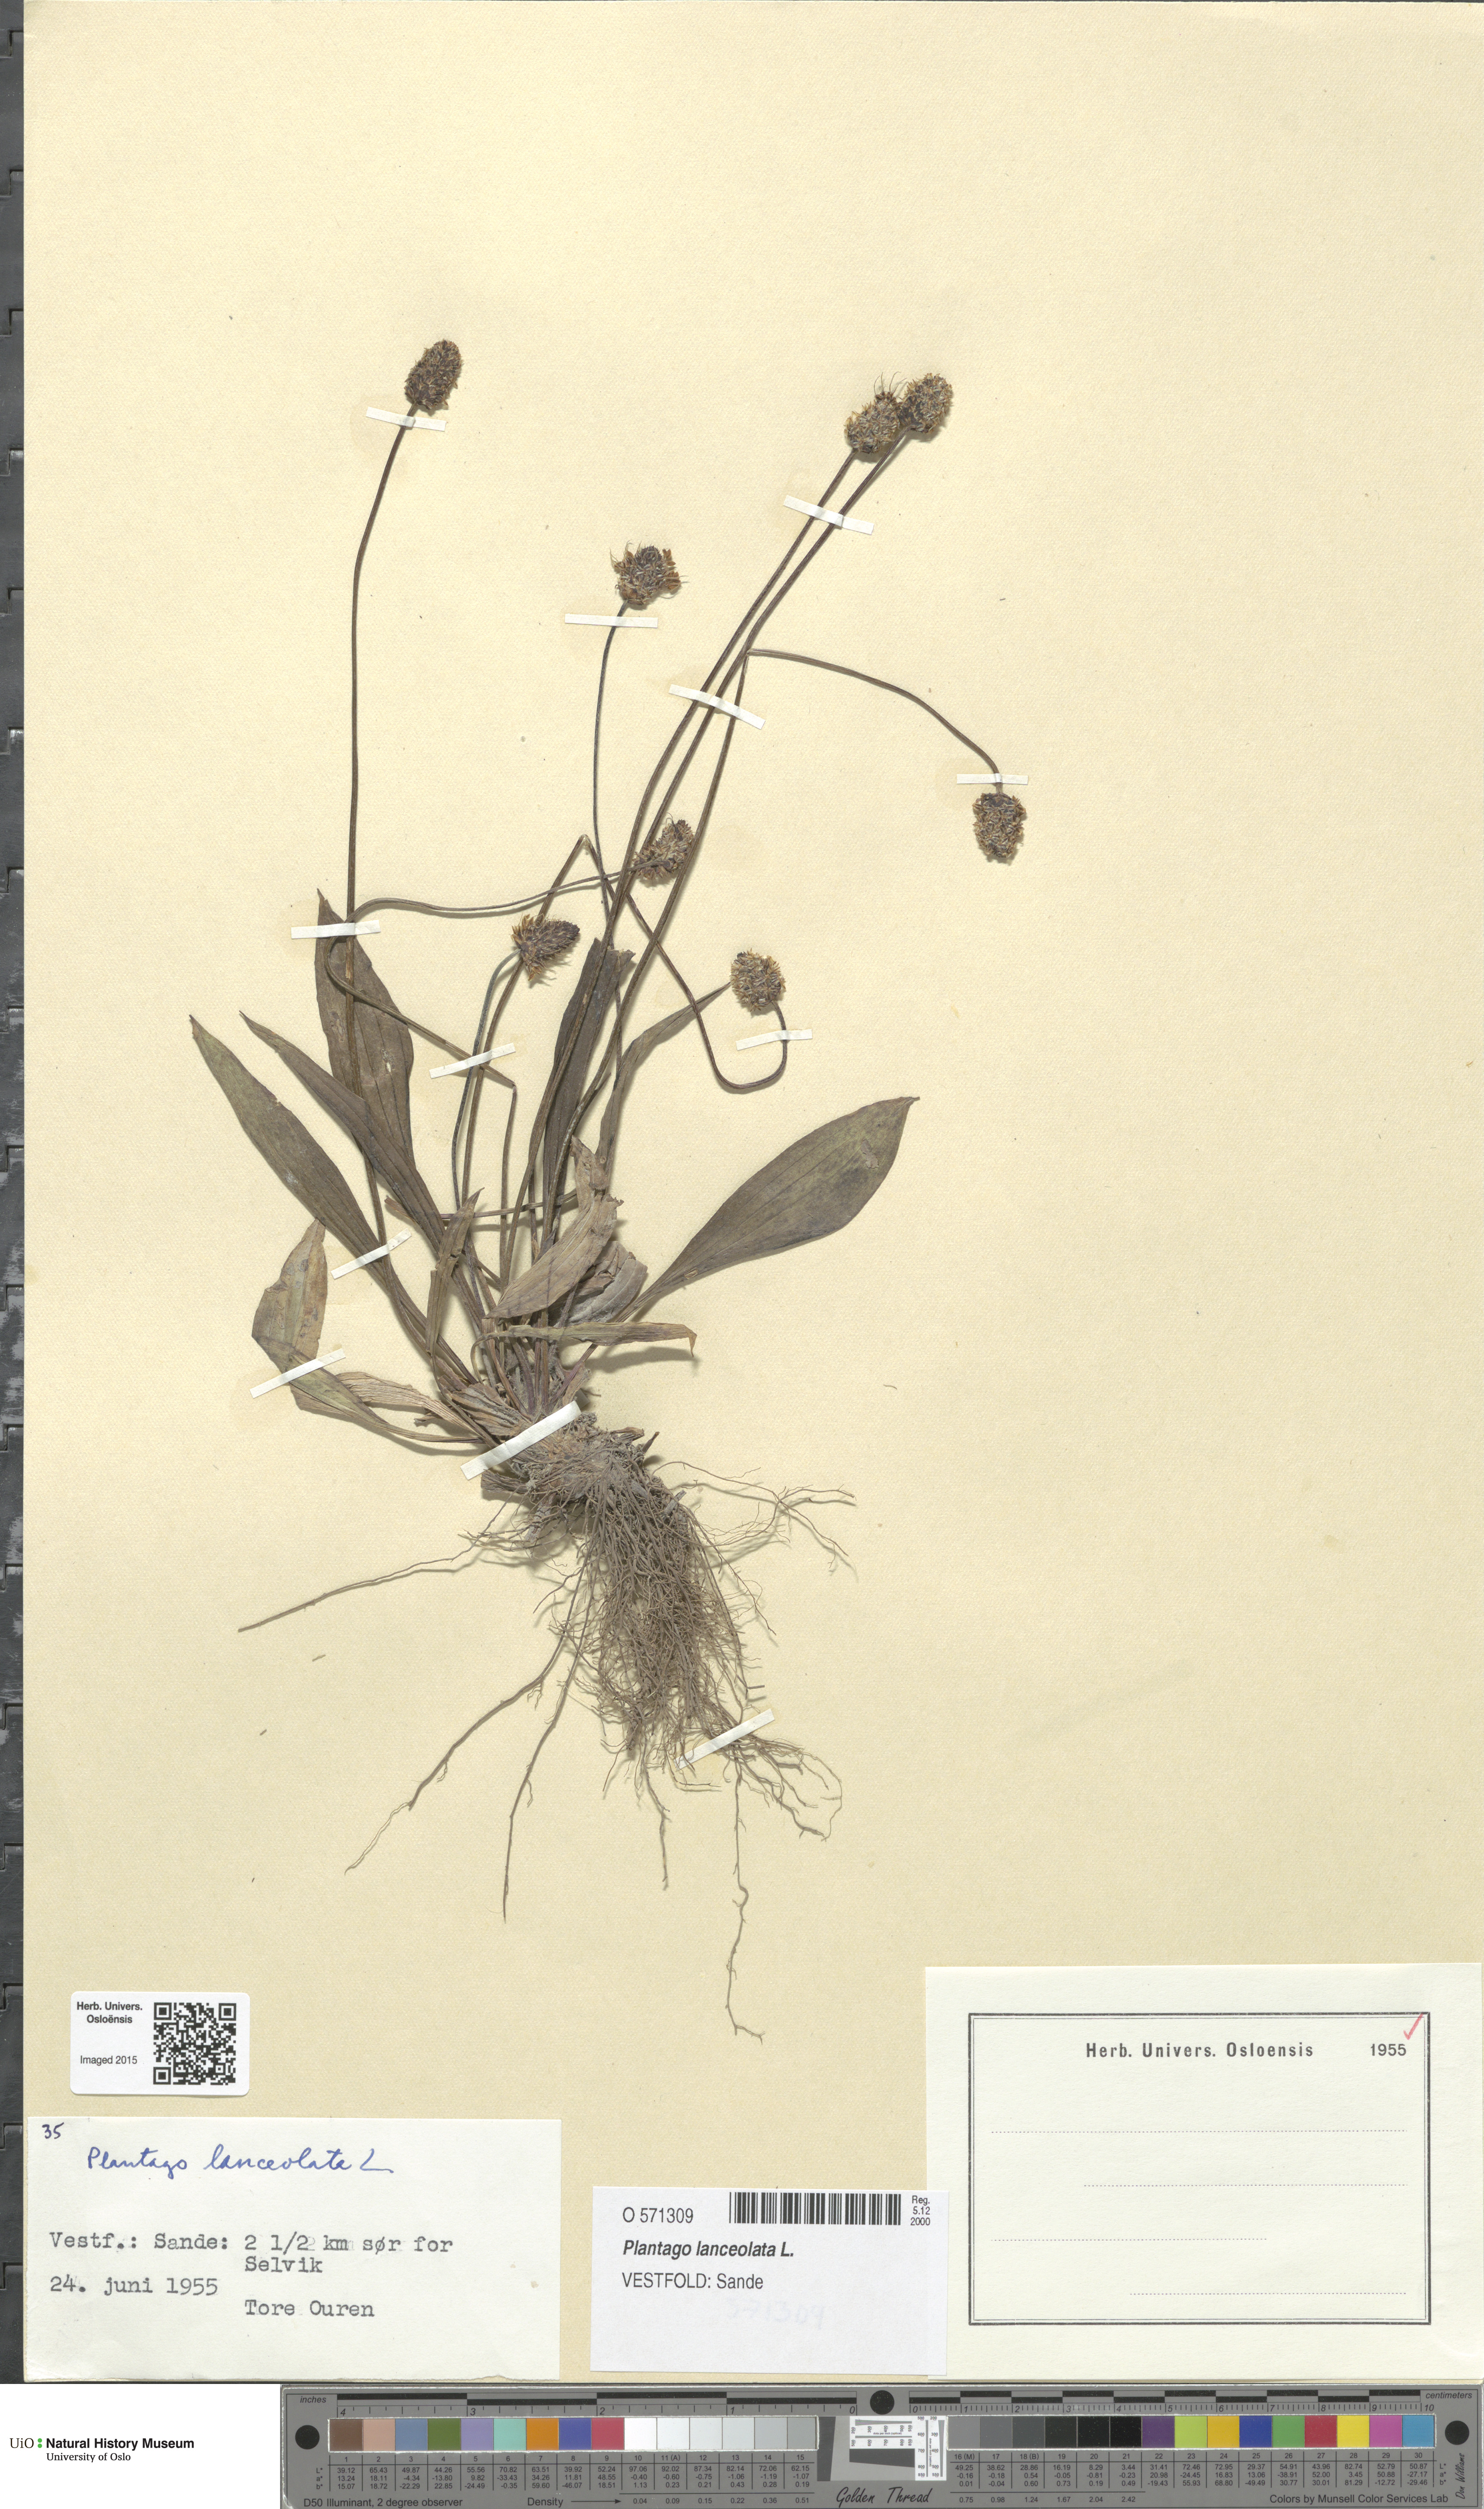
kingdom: Plantae
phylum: Tracheophyta
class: Magnoliopsida
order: Lamiales
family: Plantaginaceae
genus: Plantago
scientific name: Plantago lanceolata
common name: Ribwort plantain
